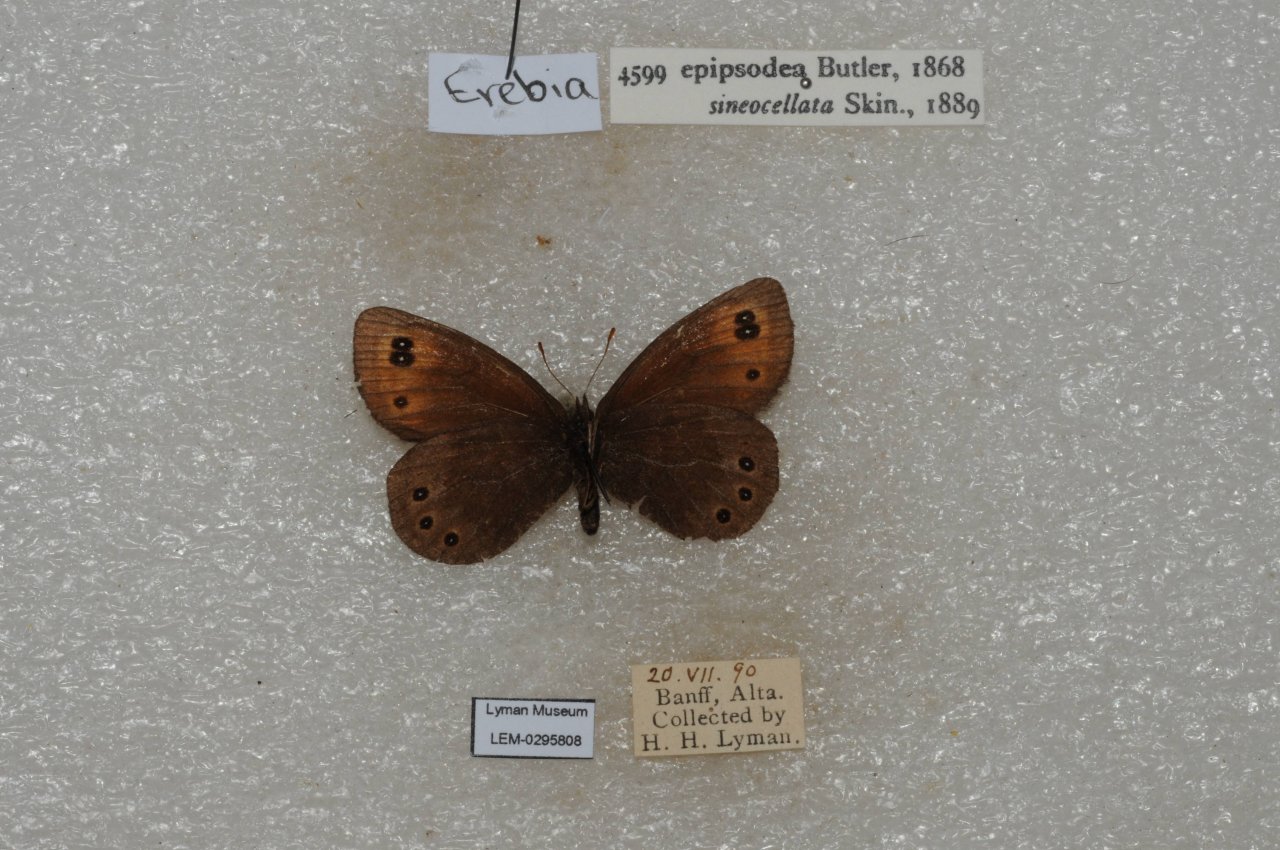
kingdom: Animalia
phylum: Arthropoda
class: Insecta
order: Lepidoptera
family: Nymphalidae
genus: Erebia
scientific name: Erebia epipsodea
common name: Common Alpine
